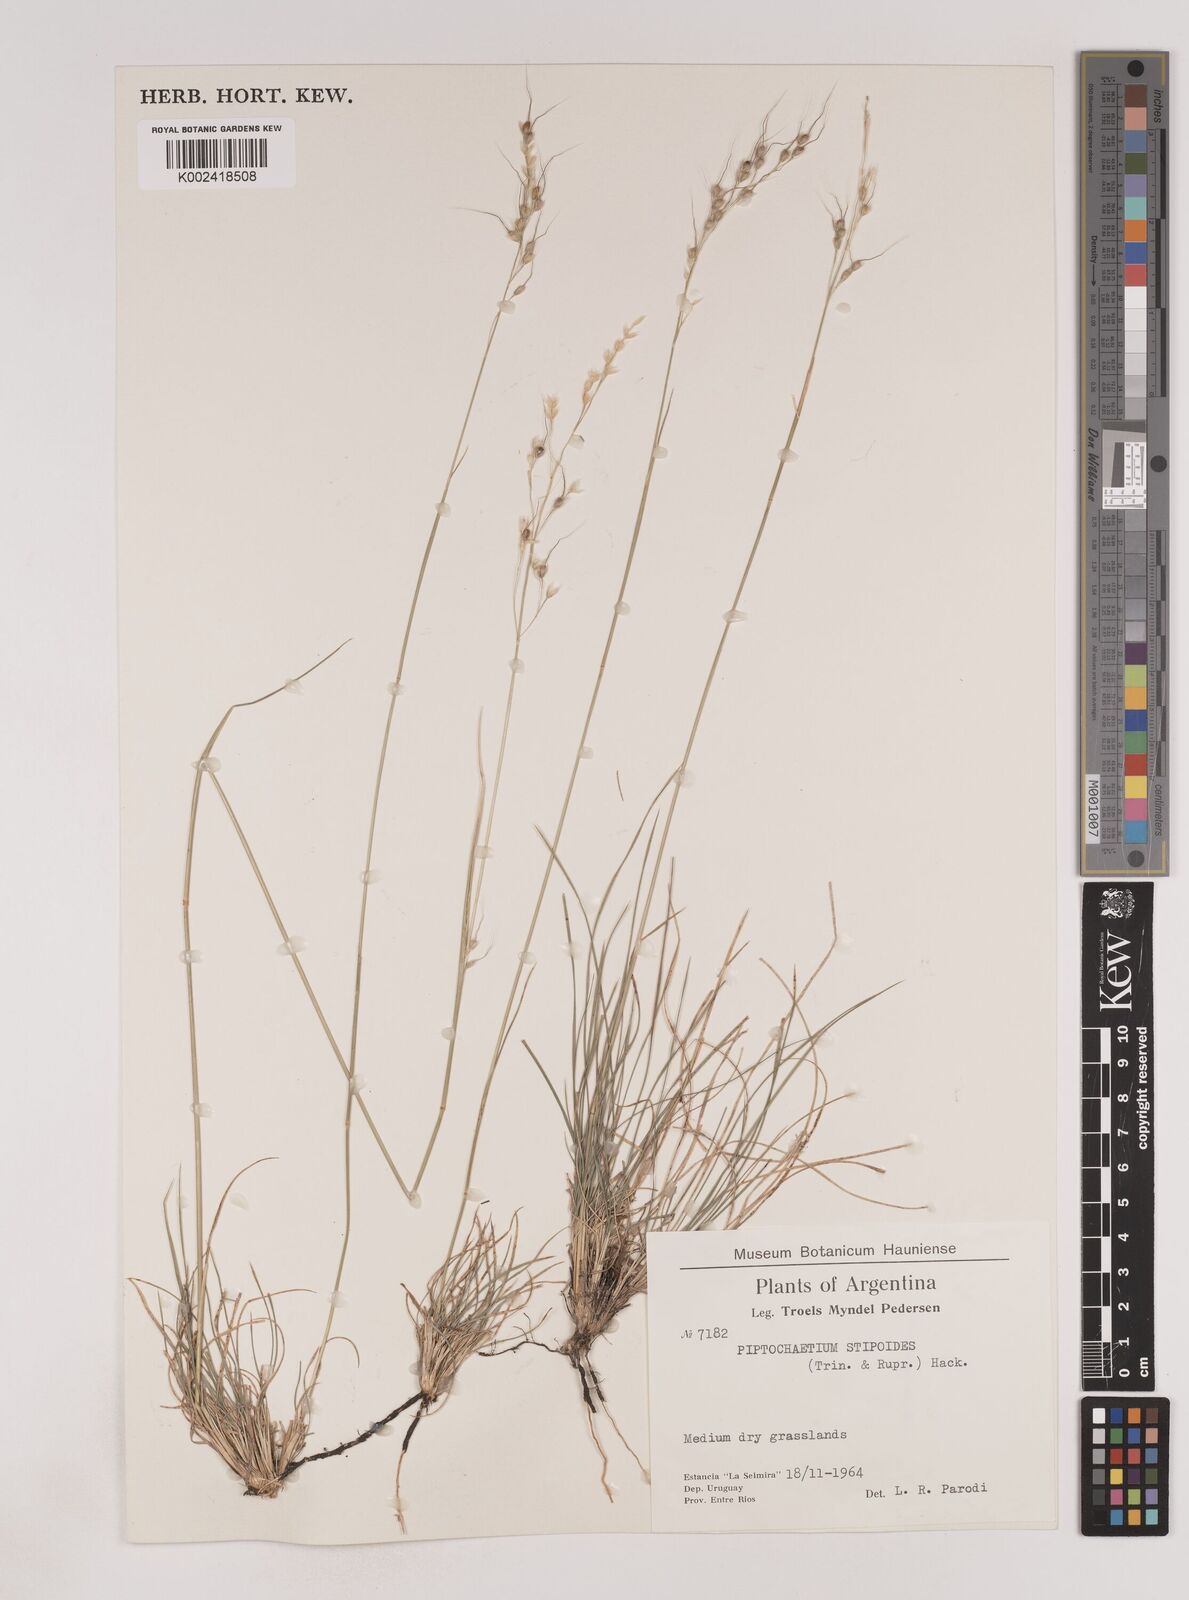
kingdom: Plantae
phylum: Tracheophyta
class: Liliopsida
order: Poales
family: Poaceae
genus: Piptochaetium
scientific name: Piptochaetium stipoides
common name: Purple speargrass
